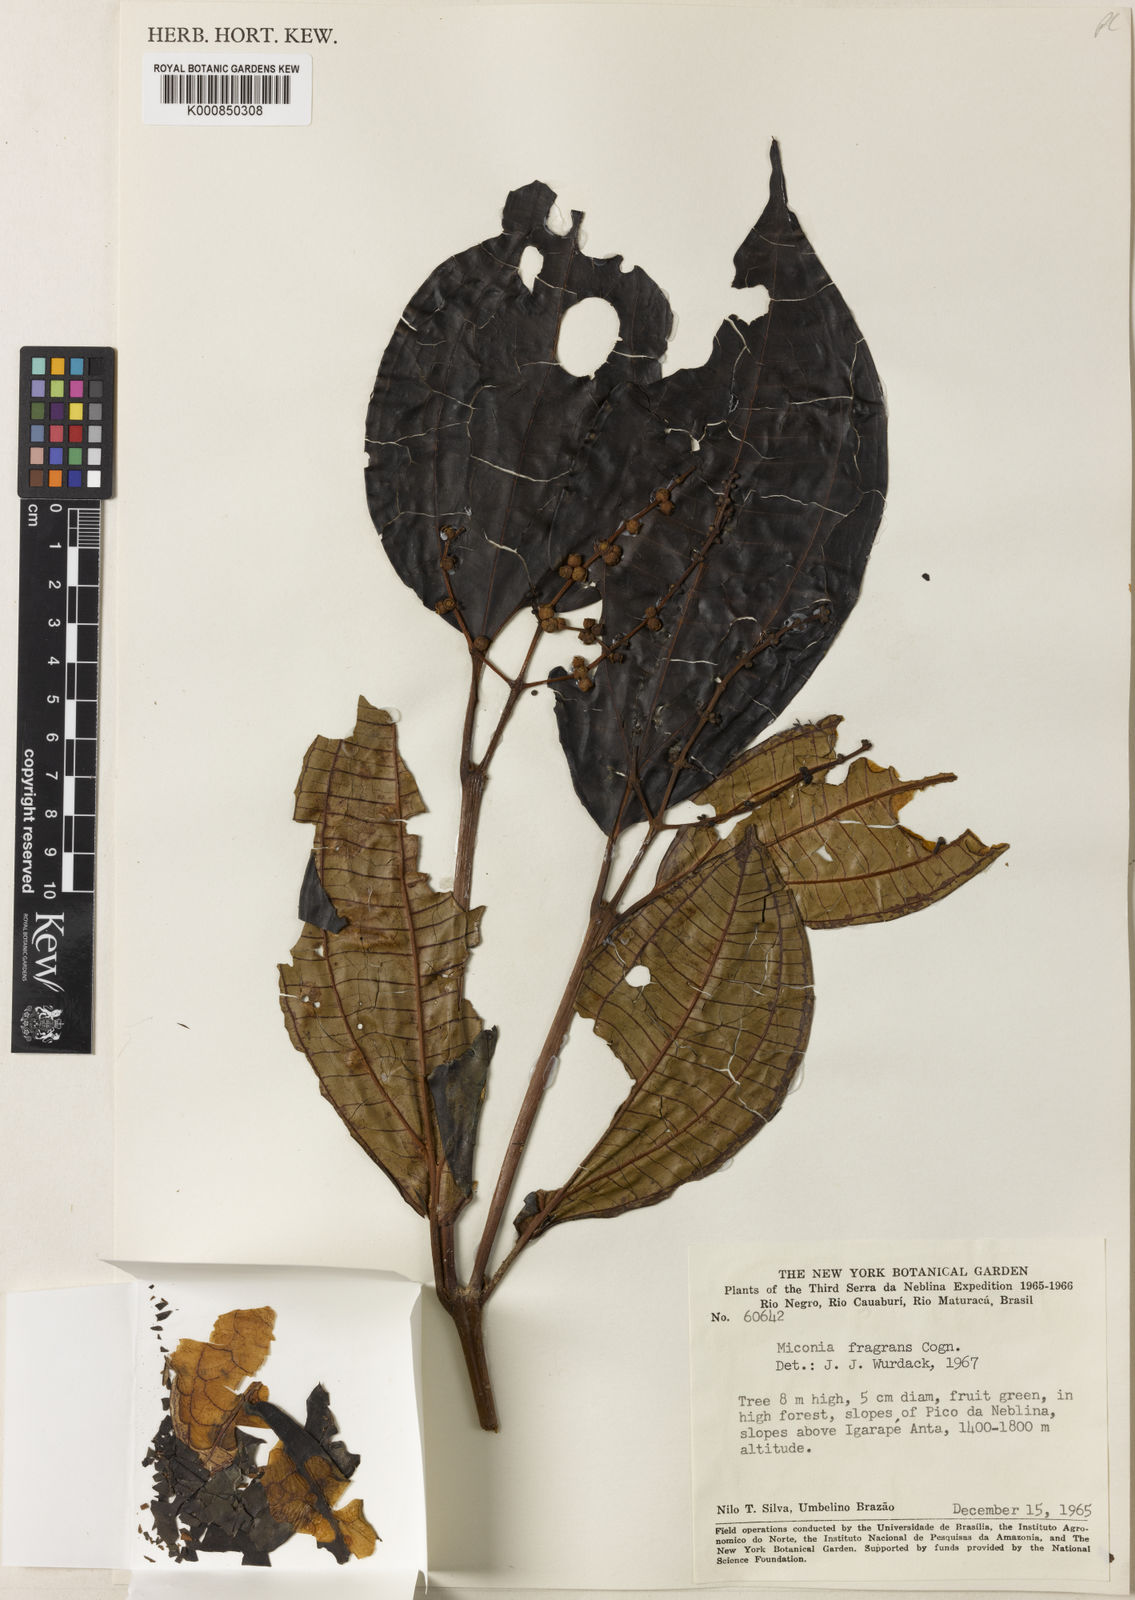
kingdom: Plantae
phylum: Tracheophyta
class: Magnoliopsida
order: Myrtales
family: Melastomataceae
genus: Miconia
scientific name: Miconia fragrans
